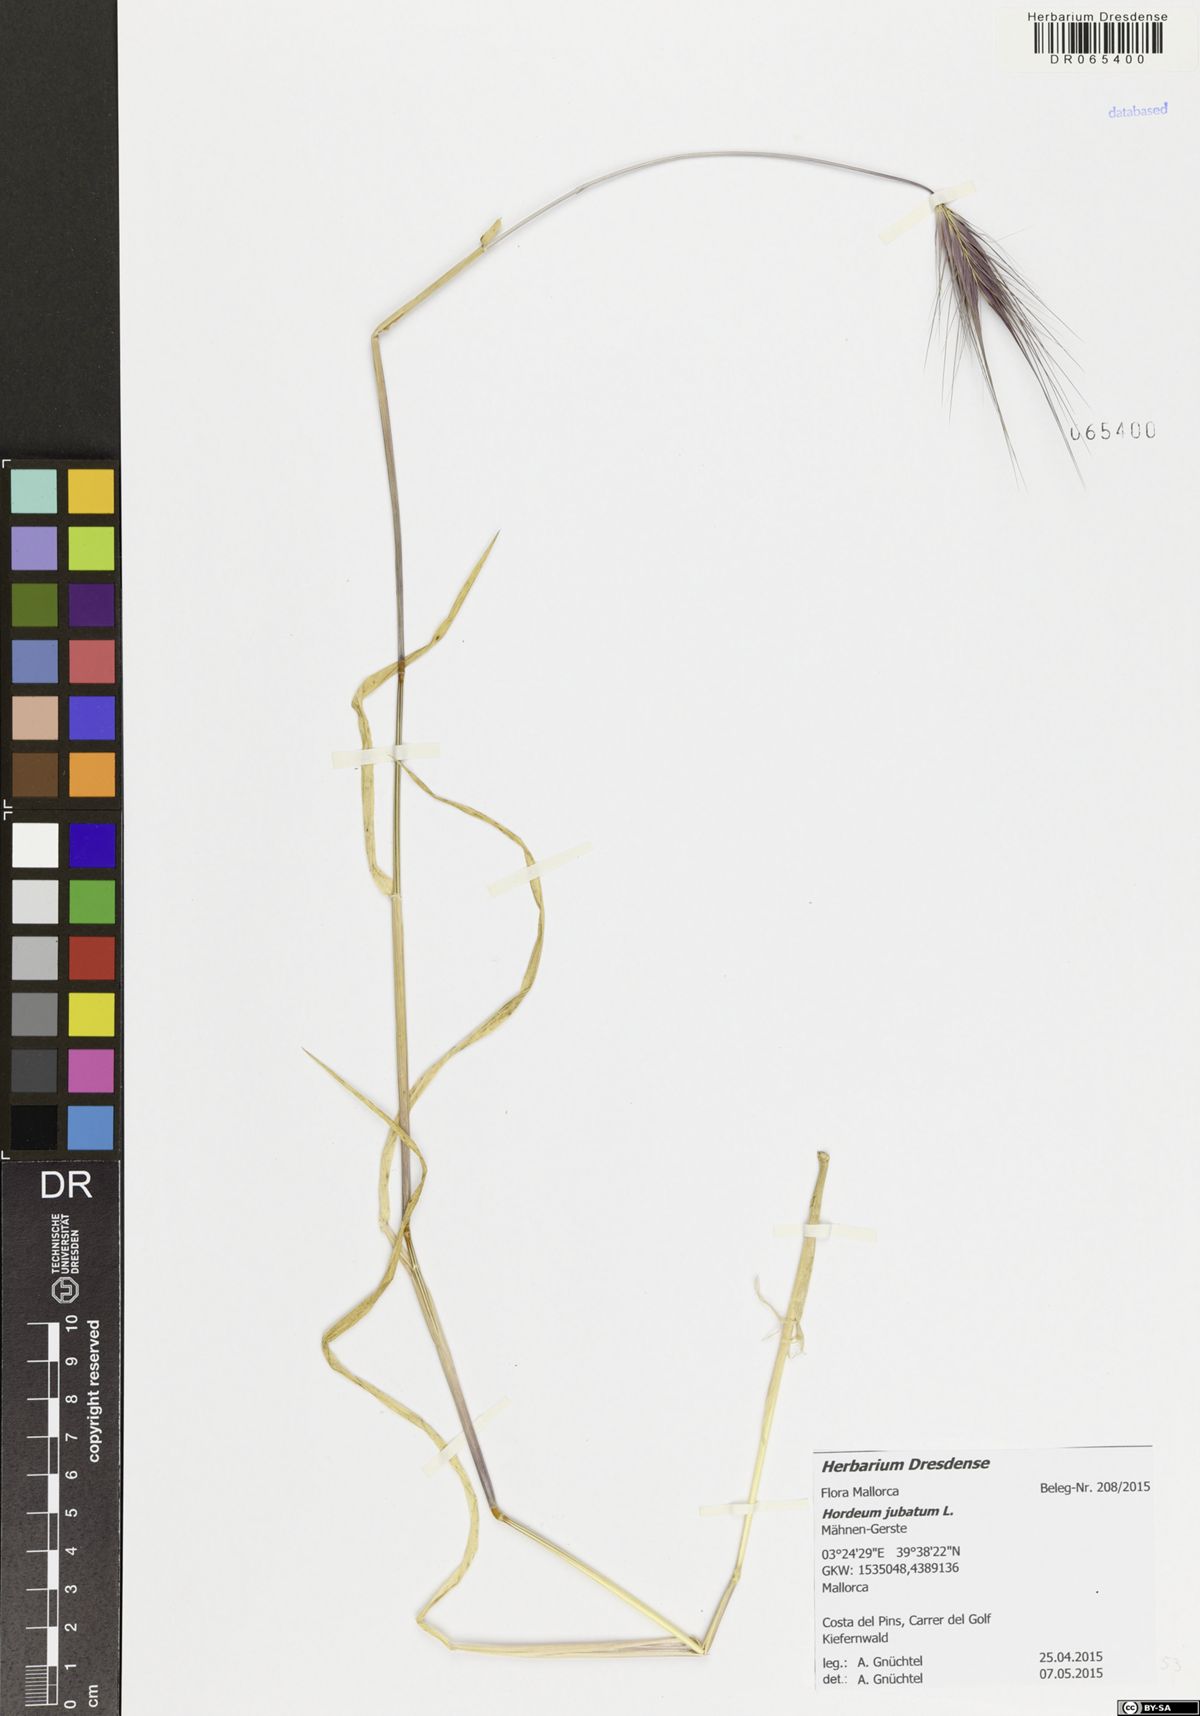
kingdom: Plantae
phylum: Tracheophyta
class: Liliopsida
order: Poales
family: Poaceae
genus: Hordeum
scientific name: Hordeum jubatum
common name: Foxtail barley
